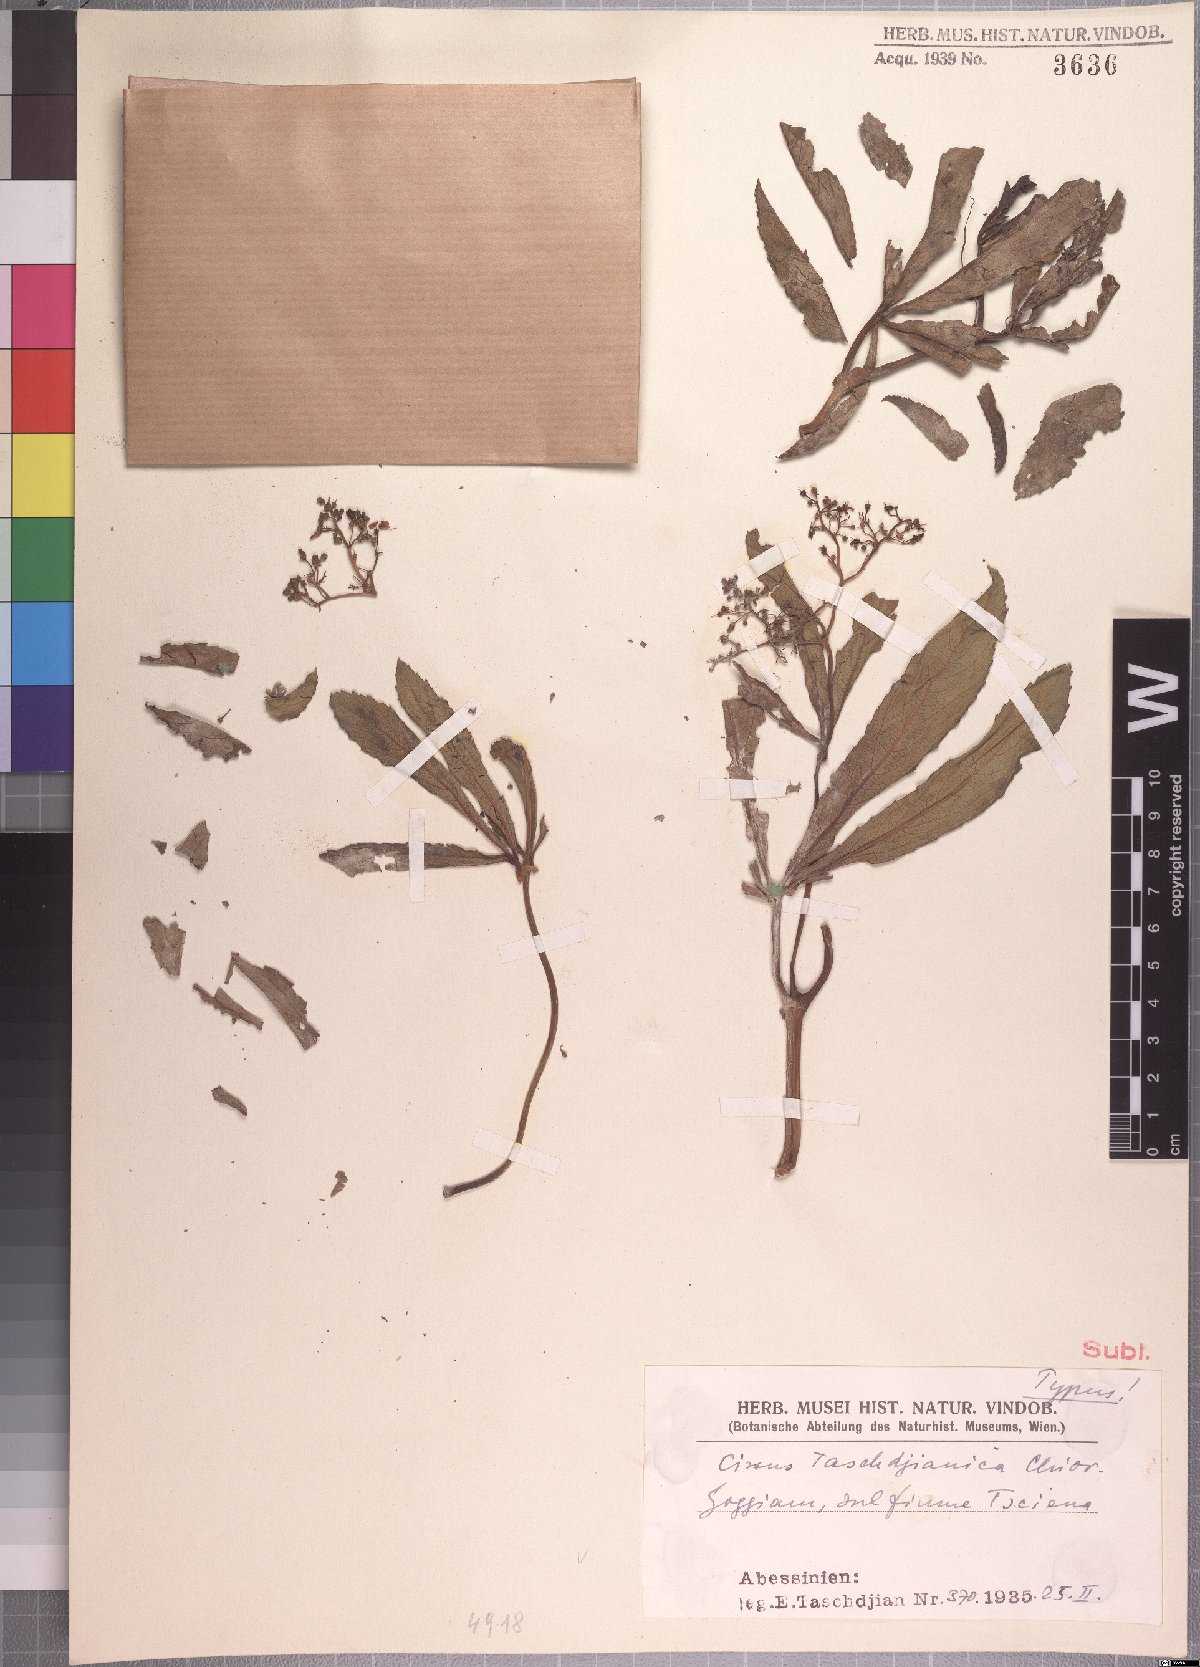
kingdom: Plantae
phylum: Tracheophyta
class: Magnoliopsida
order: Vitales
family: Vitaceae
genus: Cissus
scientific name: Cissus
